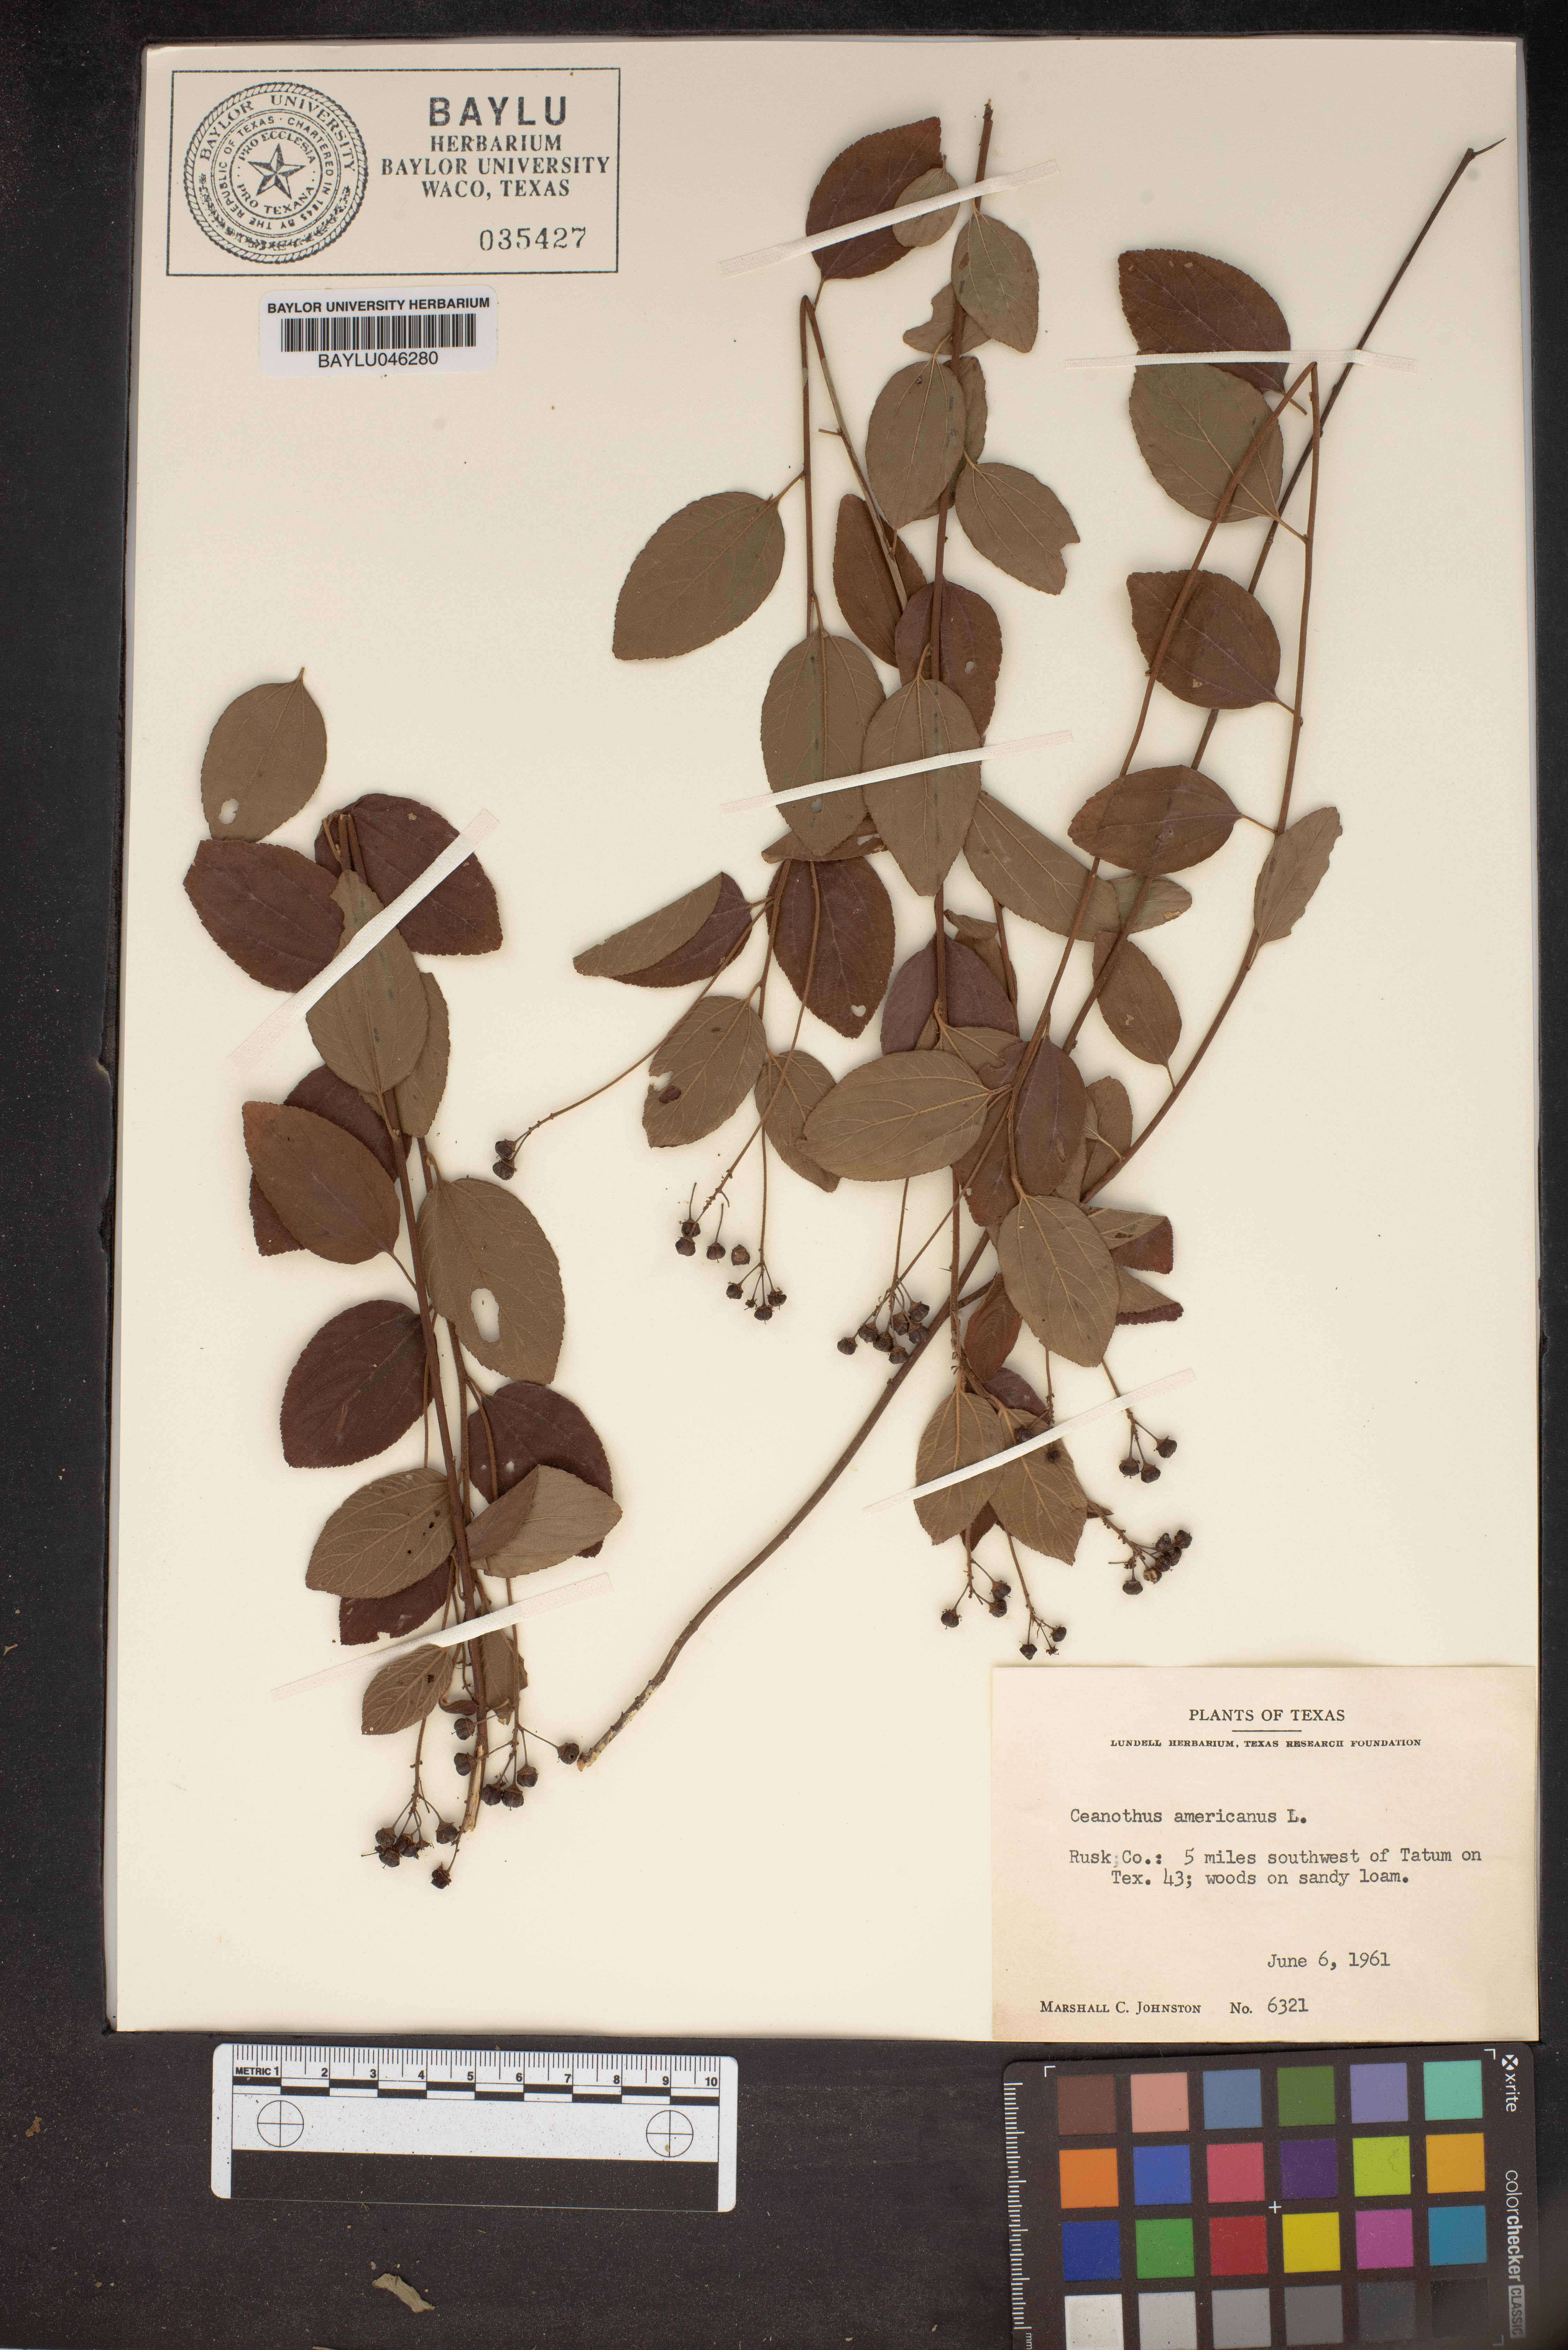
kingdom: Plantae
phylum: Tracheophyta
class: Magnoliopsida
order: Rosales
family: Rhamnaceae
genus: Ceanothus
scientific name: Ceanothus americanus
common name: Redroot
